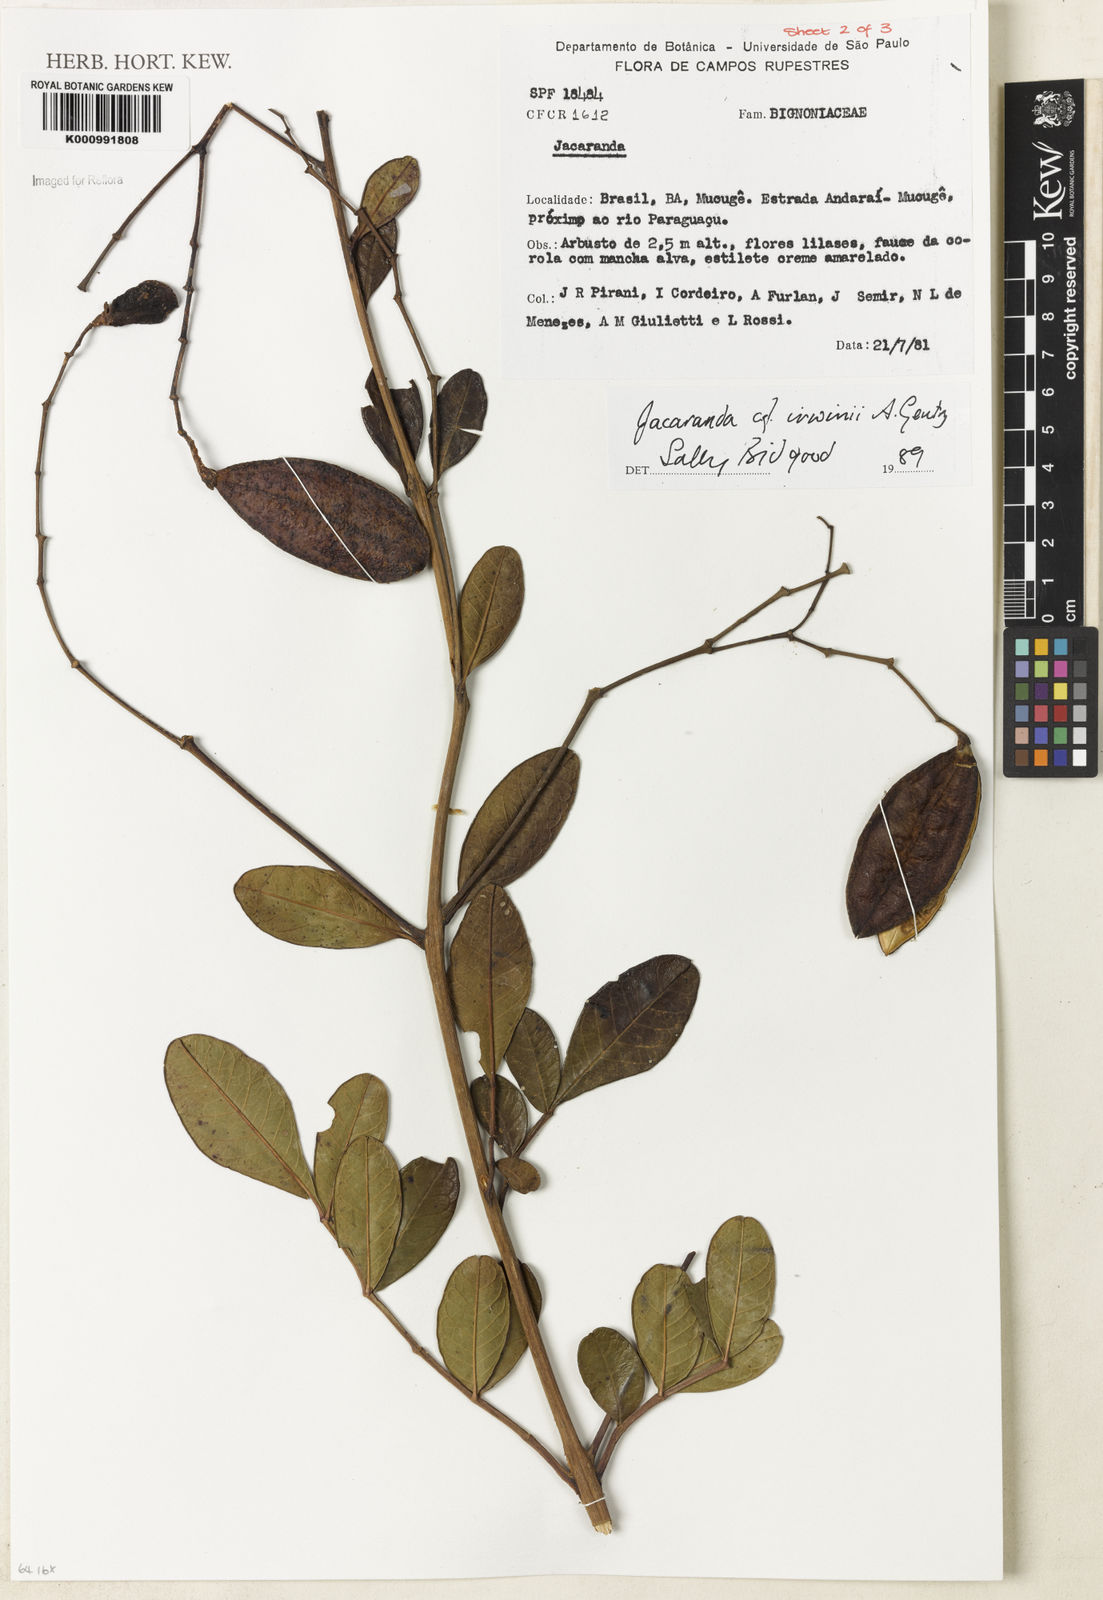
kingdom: Plantae
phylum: Tracheophyta
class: Magnoliopsida
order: Lamiales
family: Bignoniaceae
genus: Jacaranda
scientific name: Jacaranda irwinii
